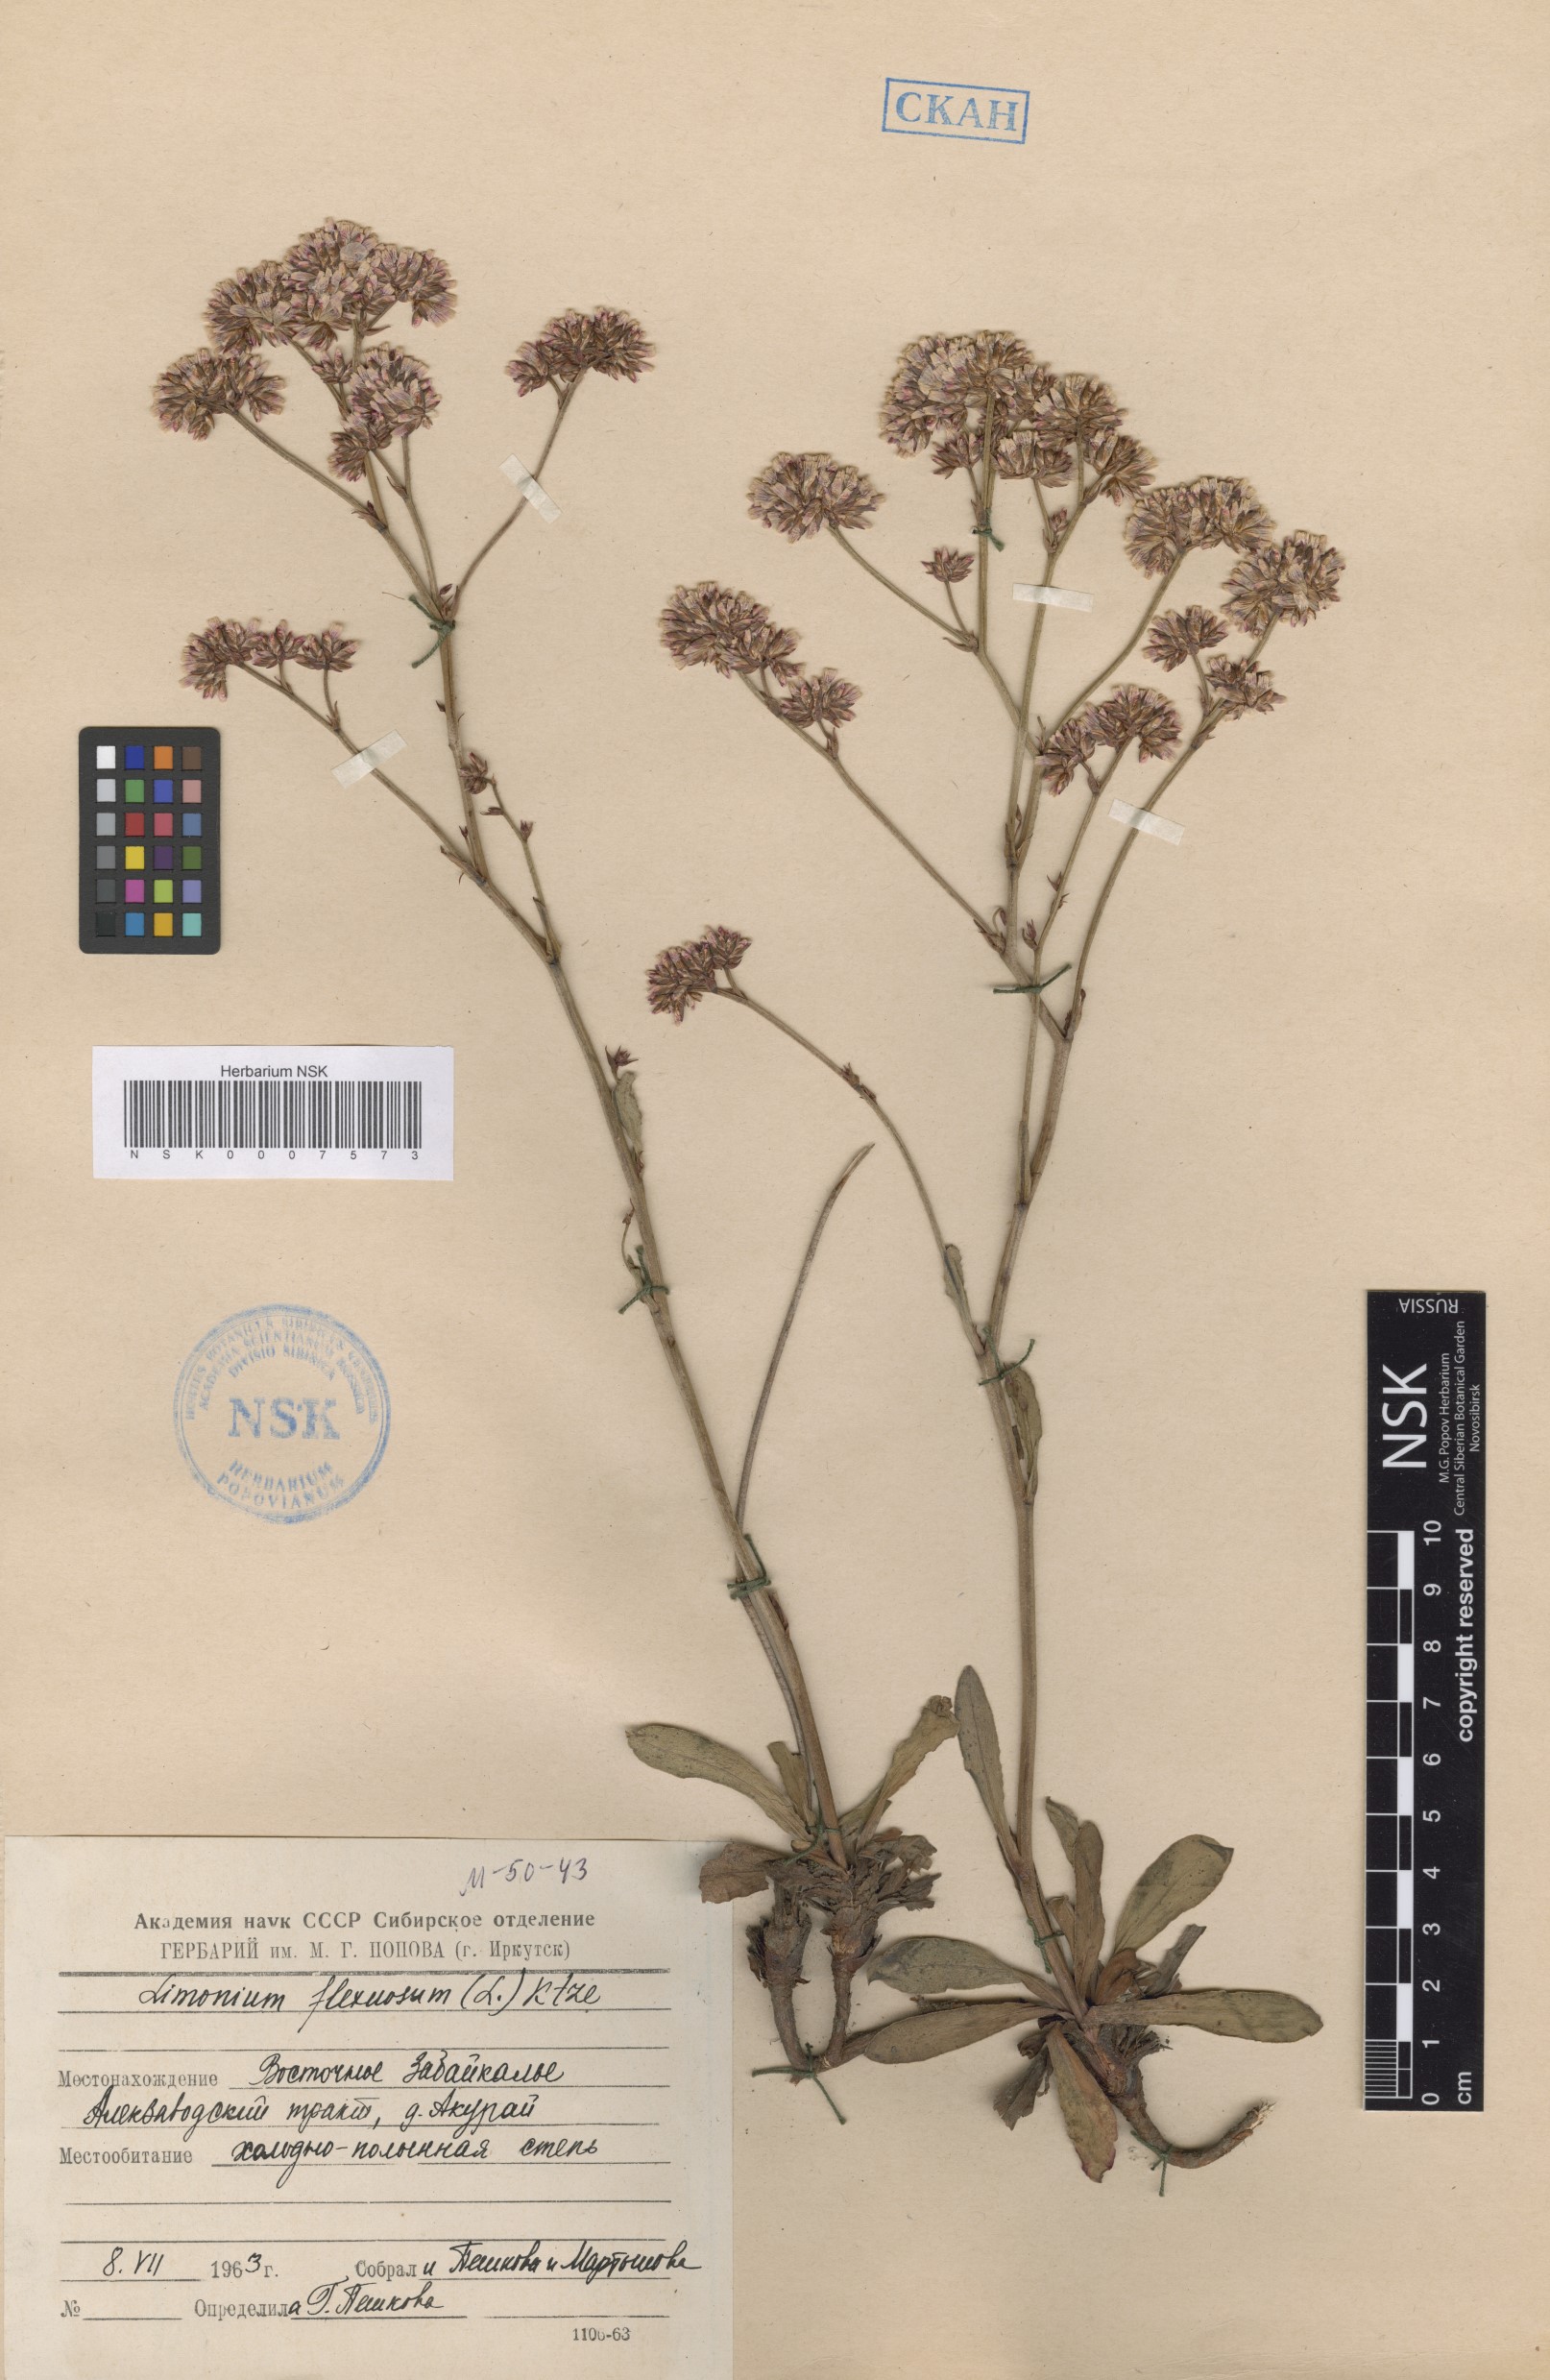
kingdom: Plantae
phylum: Tracheophyta
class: Magnoliopsida
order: Caryophyllales
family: Plumbaginaceae
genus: Limonium
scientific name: Limonium flexuosum
